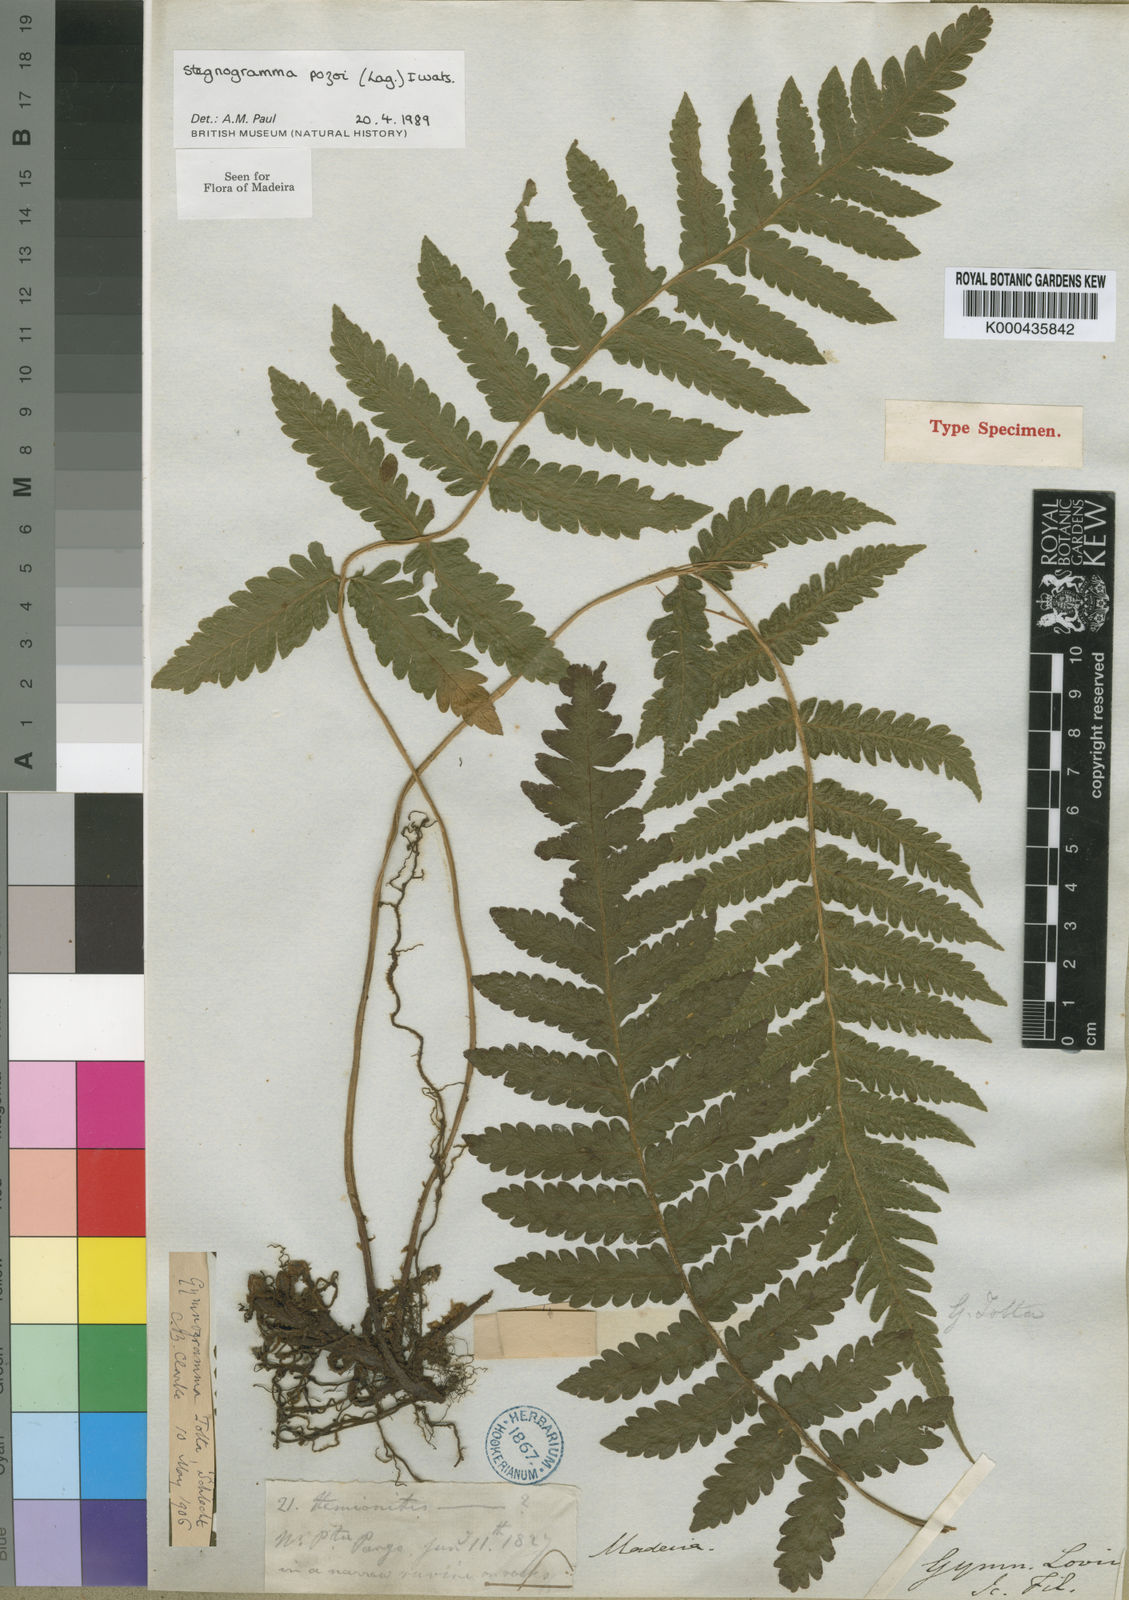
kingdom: Plantae
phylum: Tracheophyta
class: Polypodiopsida
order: Polypodiales
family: Thelypteridaceae
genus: Leptogramma
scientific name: Leptogramma pozoi
